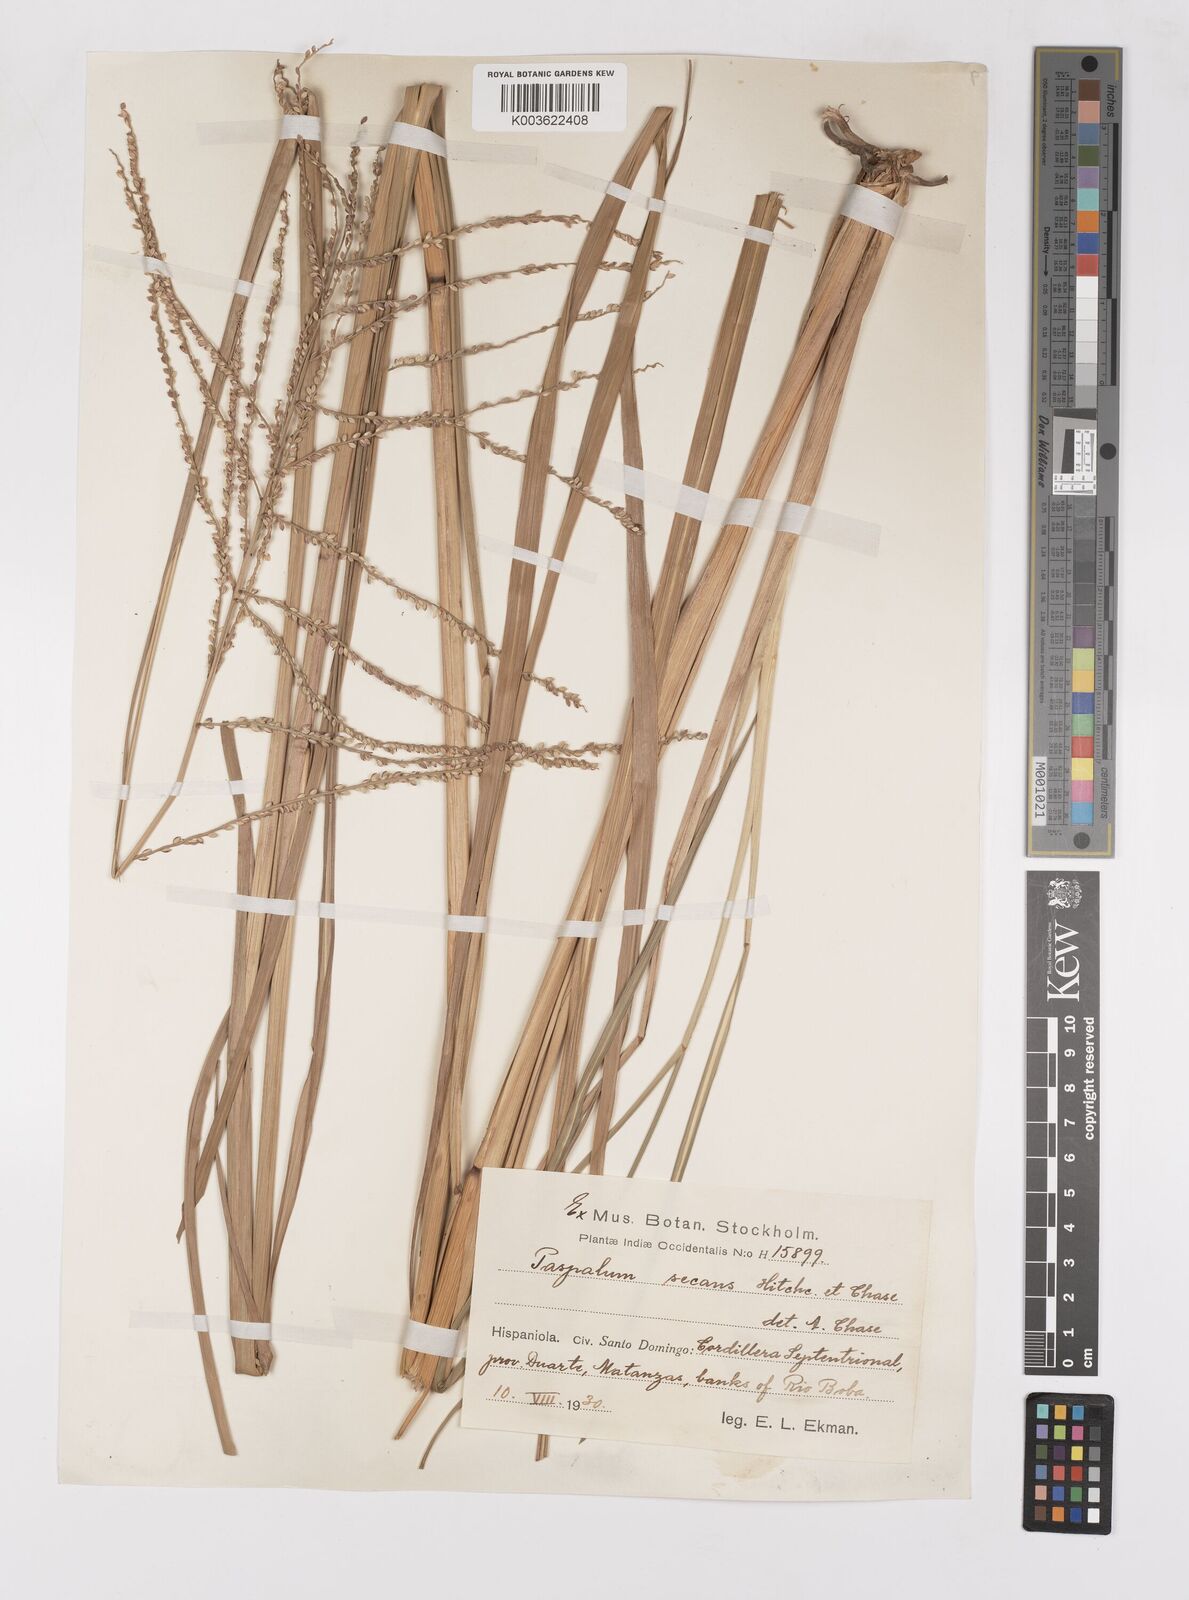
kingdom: Plantae
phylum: Tracheophyta
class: Liliopsida
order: Poales
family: Poaceae
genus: Paspalum
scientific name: Paspalum arundinaceum
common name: Thick ditch crowngrass
